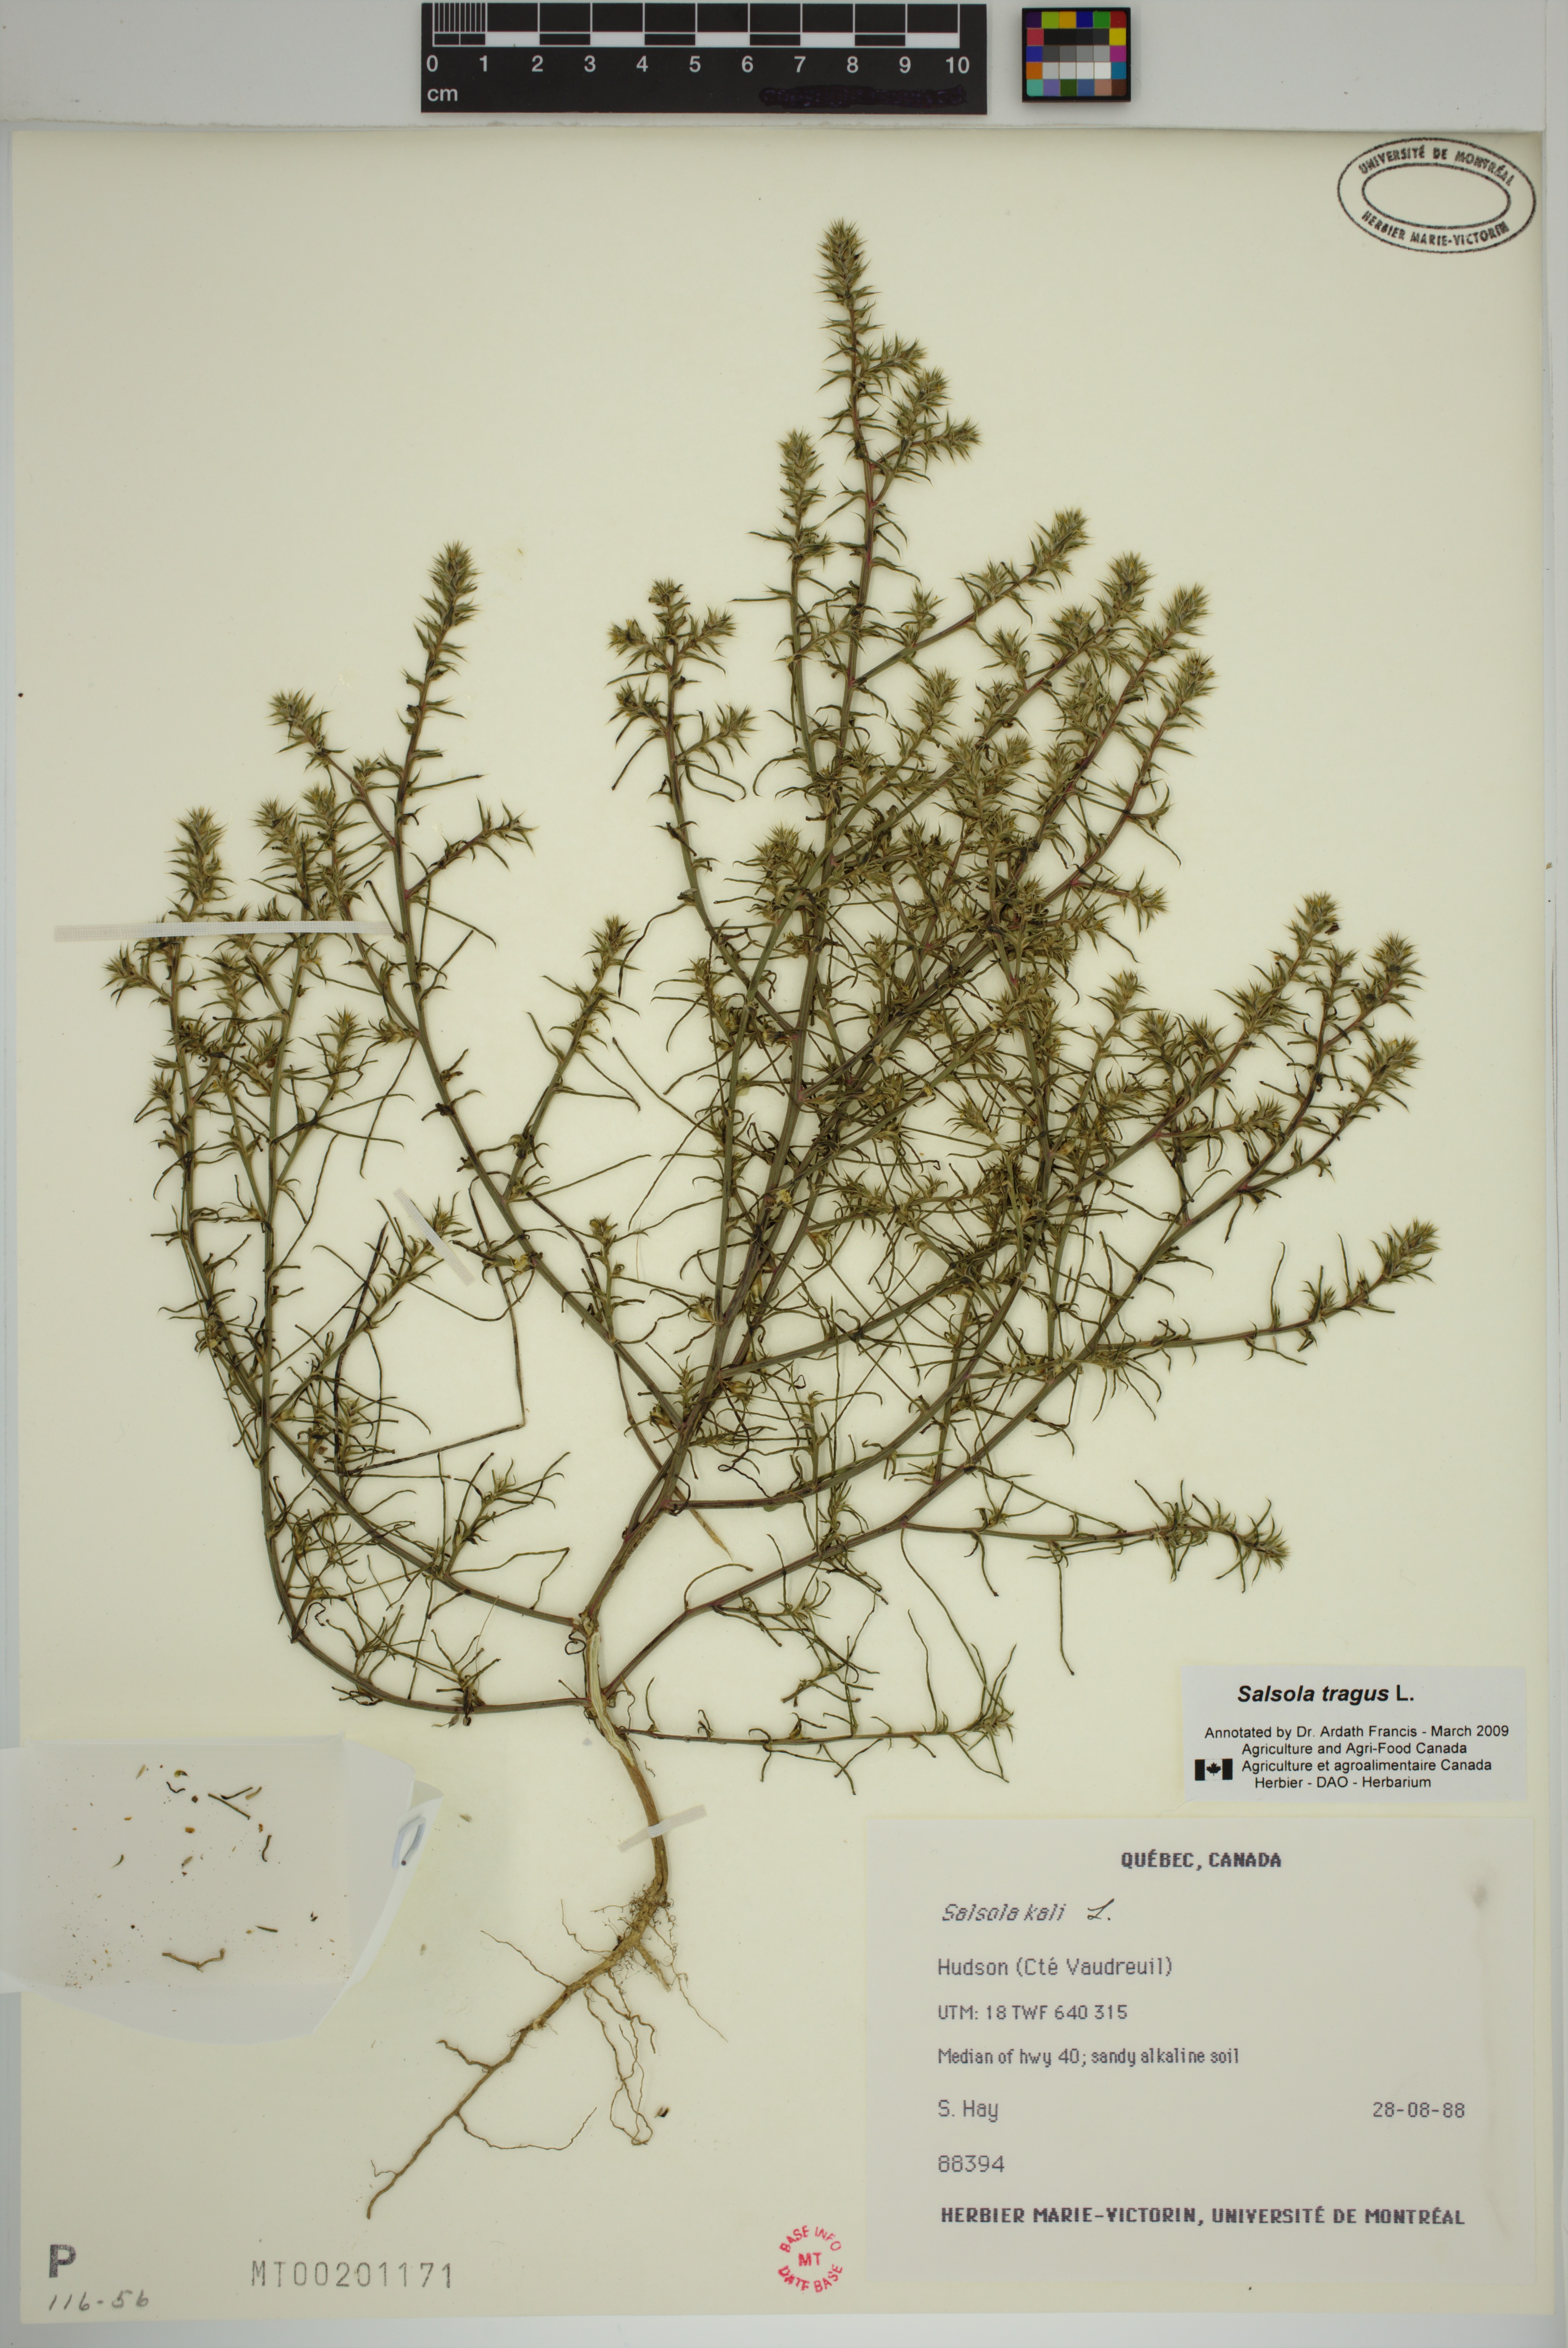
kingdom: Plantae
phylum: Tracheophyta
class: Magnoliopsida
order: Caryophyllales
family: Amaranthaceae
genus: Salsola
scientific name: Salsola tragus
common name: Prickly russian thistle
